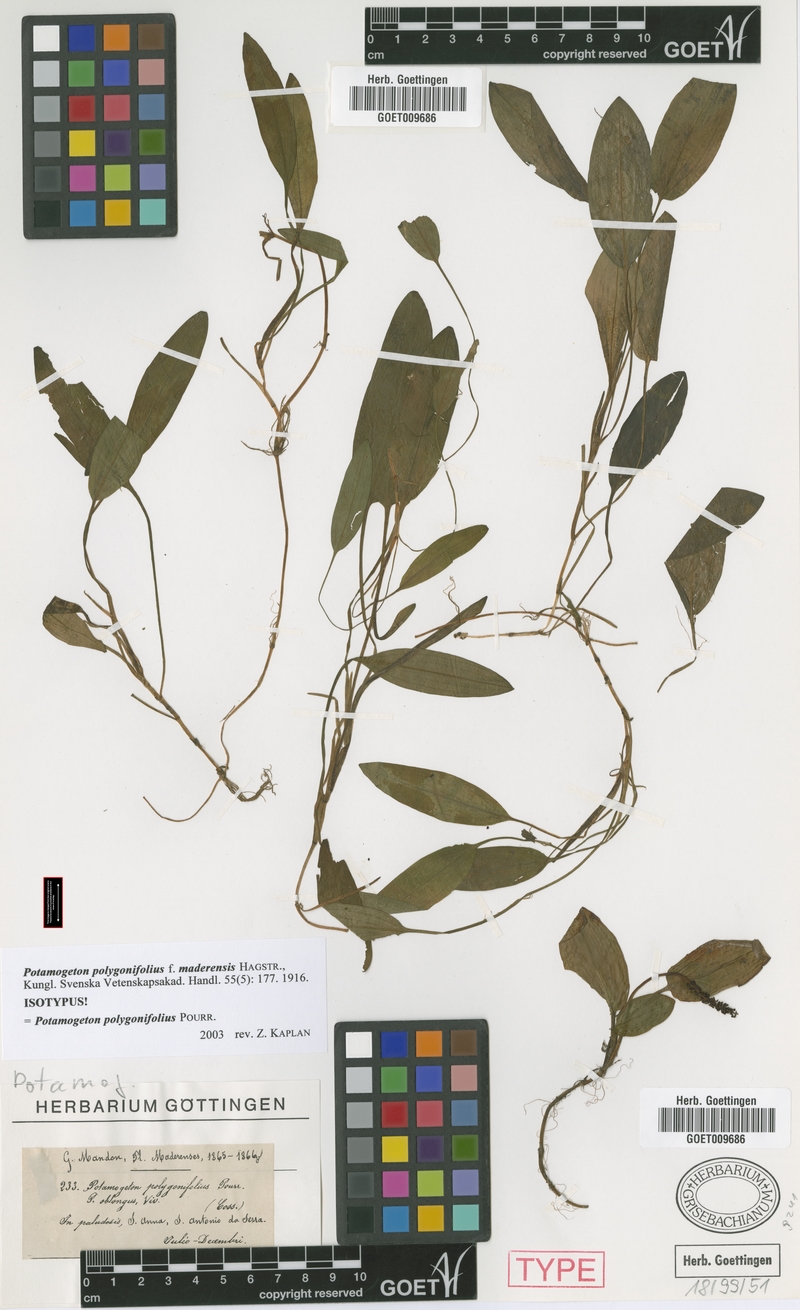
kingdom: Plantae
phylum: Tracheophyta
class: Liliopsida
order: Alismatales
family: Potamogetonaceae
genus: Potamogeton
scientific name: Potamogeton polygonifolius
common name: Bog pondweed
